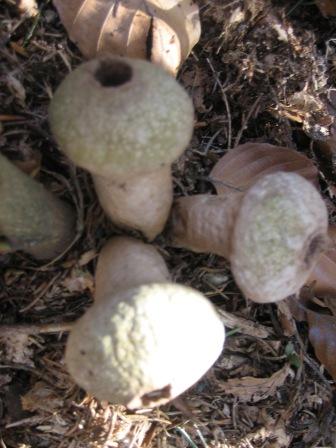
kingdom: Fungi
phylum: Basidiomycota
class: Agaricomycetes
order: Agaricales
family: Lycoperdaceae
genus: Lycoperdon
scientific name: Lycoperdon perlatum
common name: krystal-støvbold
